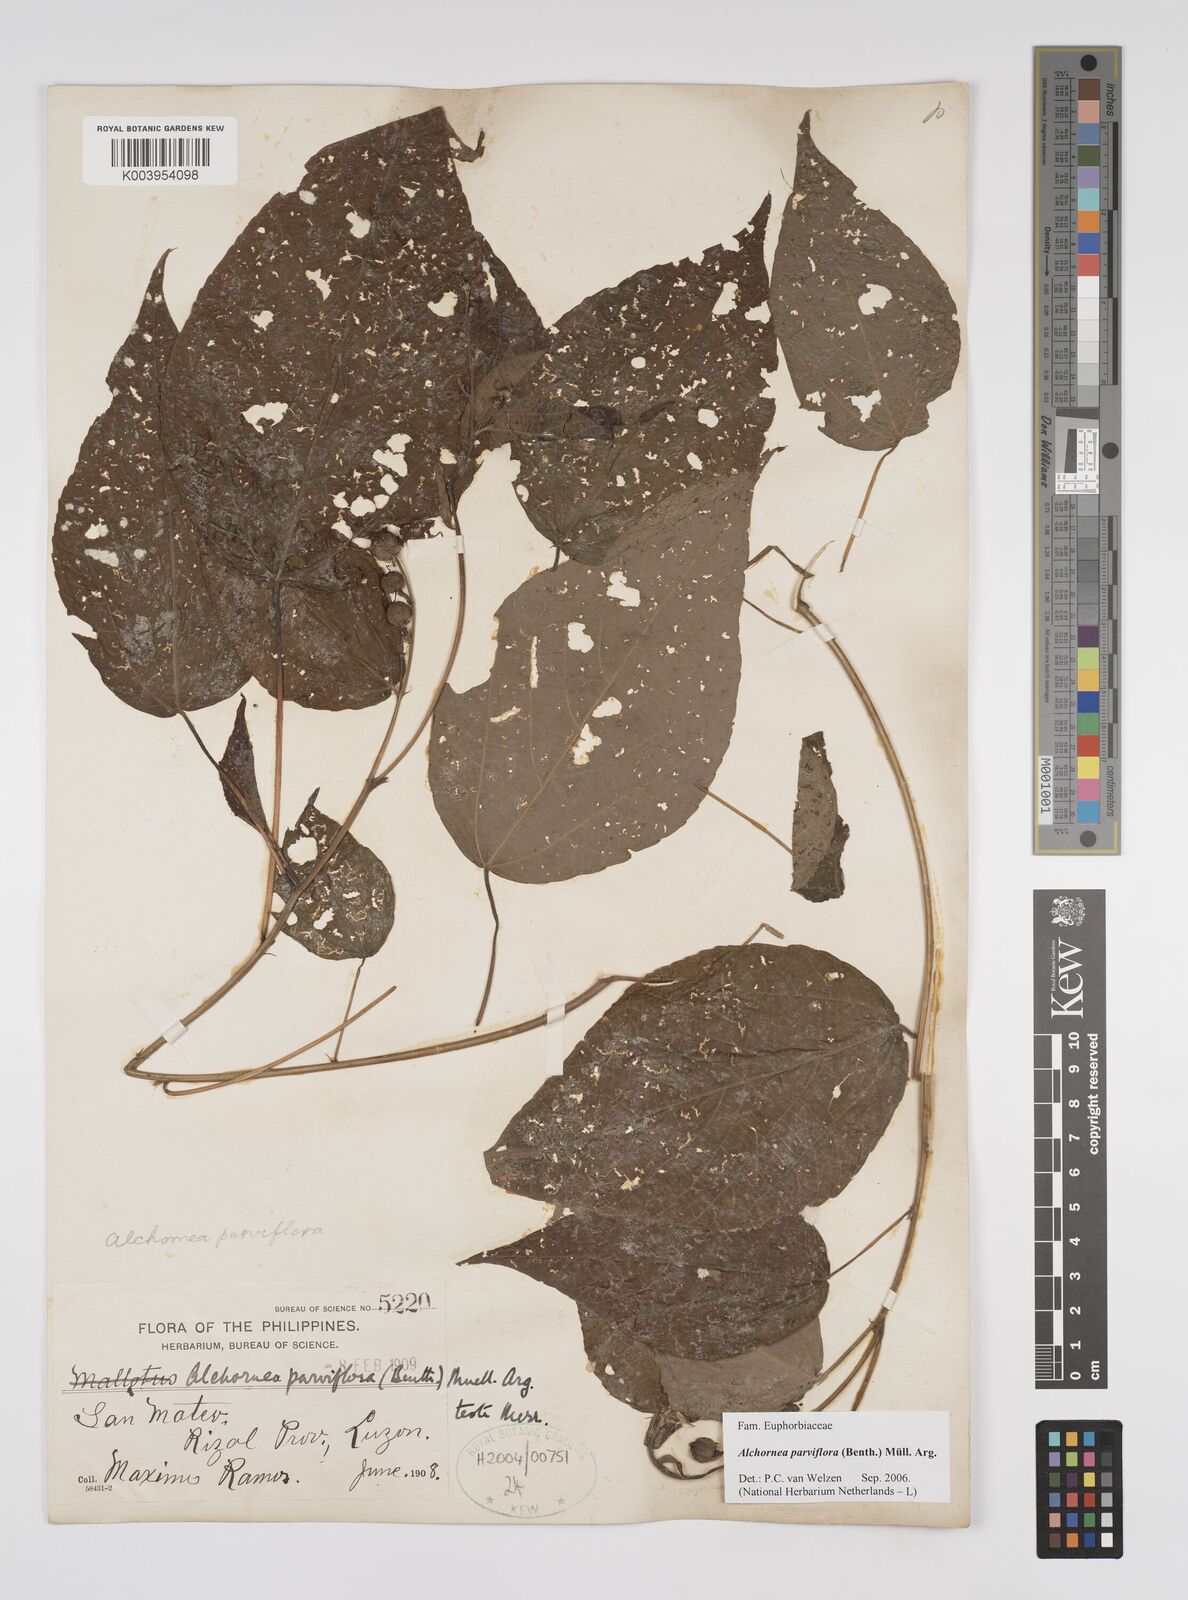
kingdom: Plantae
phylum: Tracheophyta
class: Magnoliopsida
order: Malpighiales
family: Euphorbiaceae
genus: Alchornea
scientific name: Alchornea parviflora
